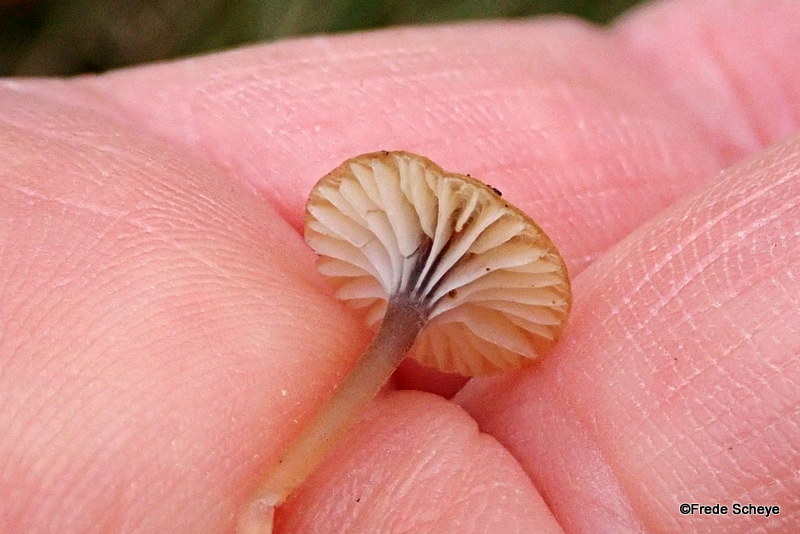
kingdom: Fungi
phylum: Basidiomycota
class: Agaricomycetes
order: Hymenochaetales
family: Rickenellaceae
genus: Rickenella
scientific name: Rickenella swartzii
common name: finstokket mosnavlehat
